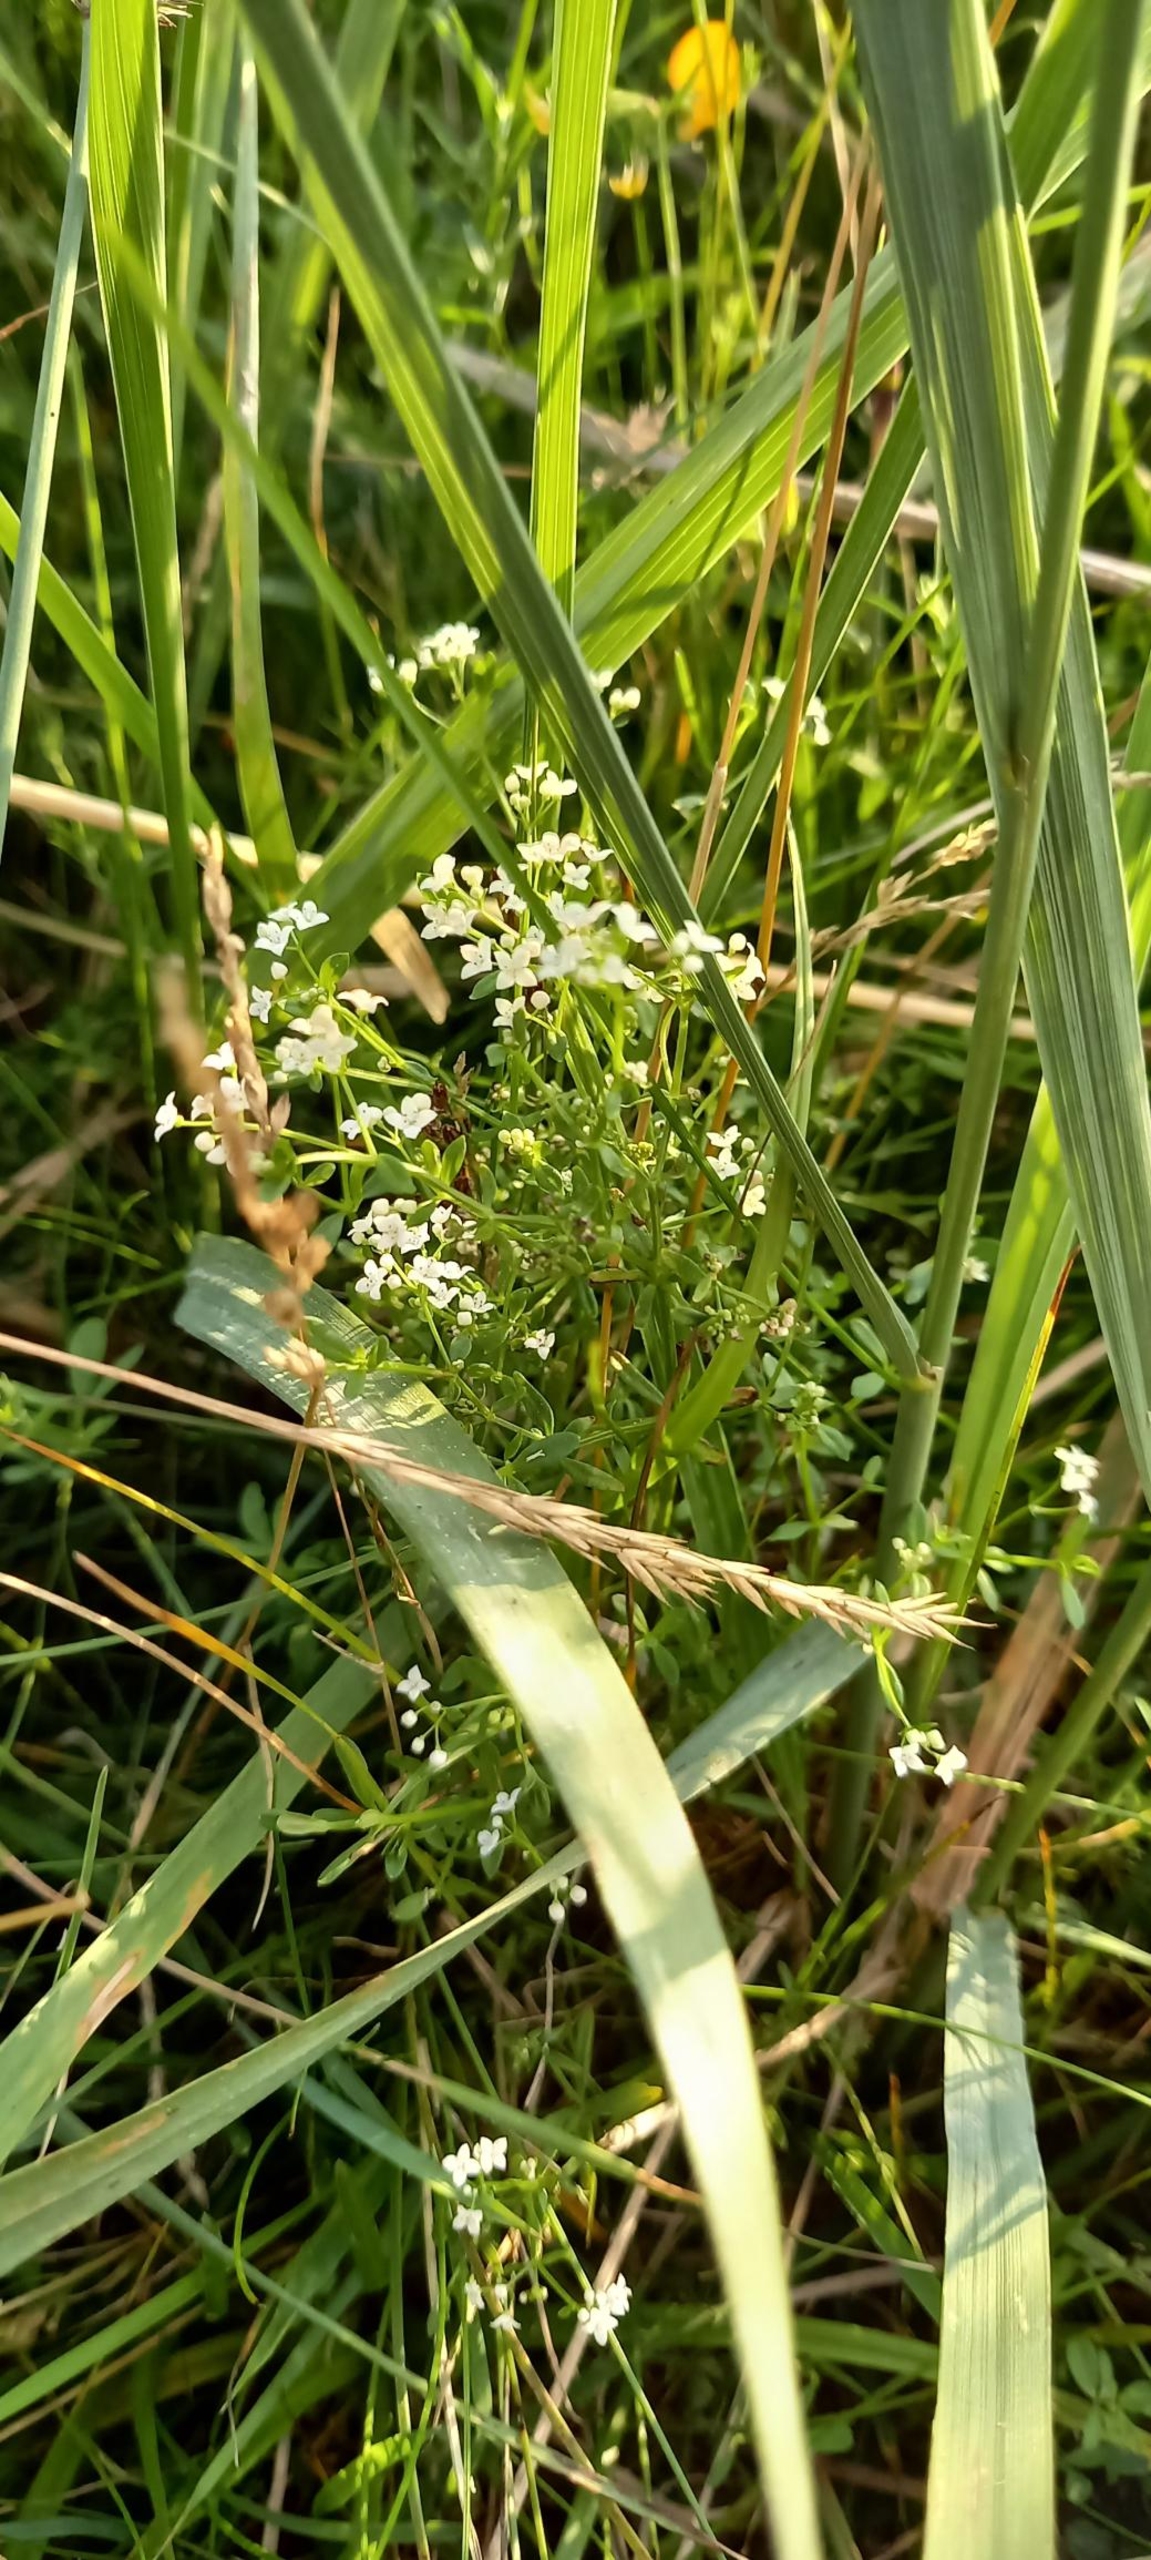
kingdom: Plantae
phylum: Tracheophyta
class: Magnoliopsida
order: Gentianales
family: Rubiaceae
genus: Galium
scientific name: Galium palustre
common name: Kær-snerre
